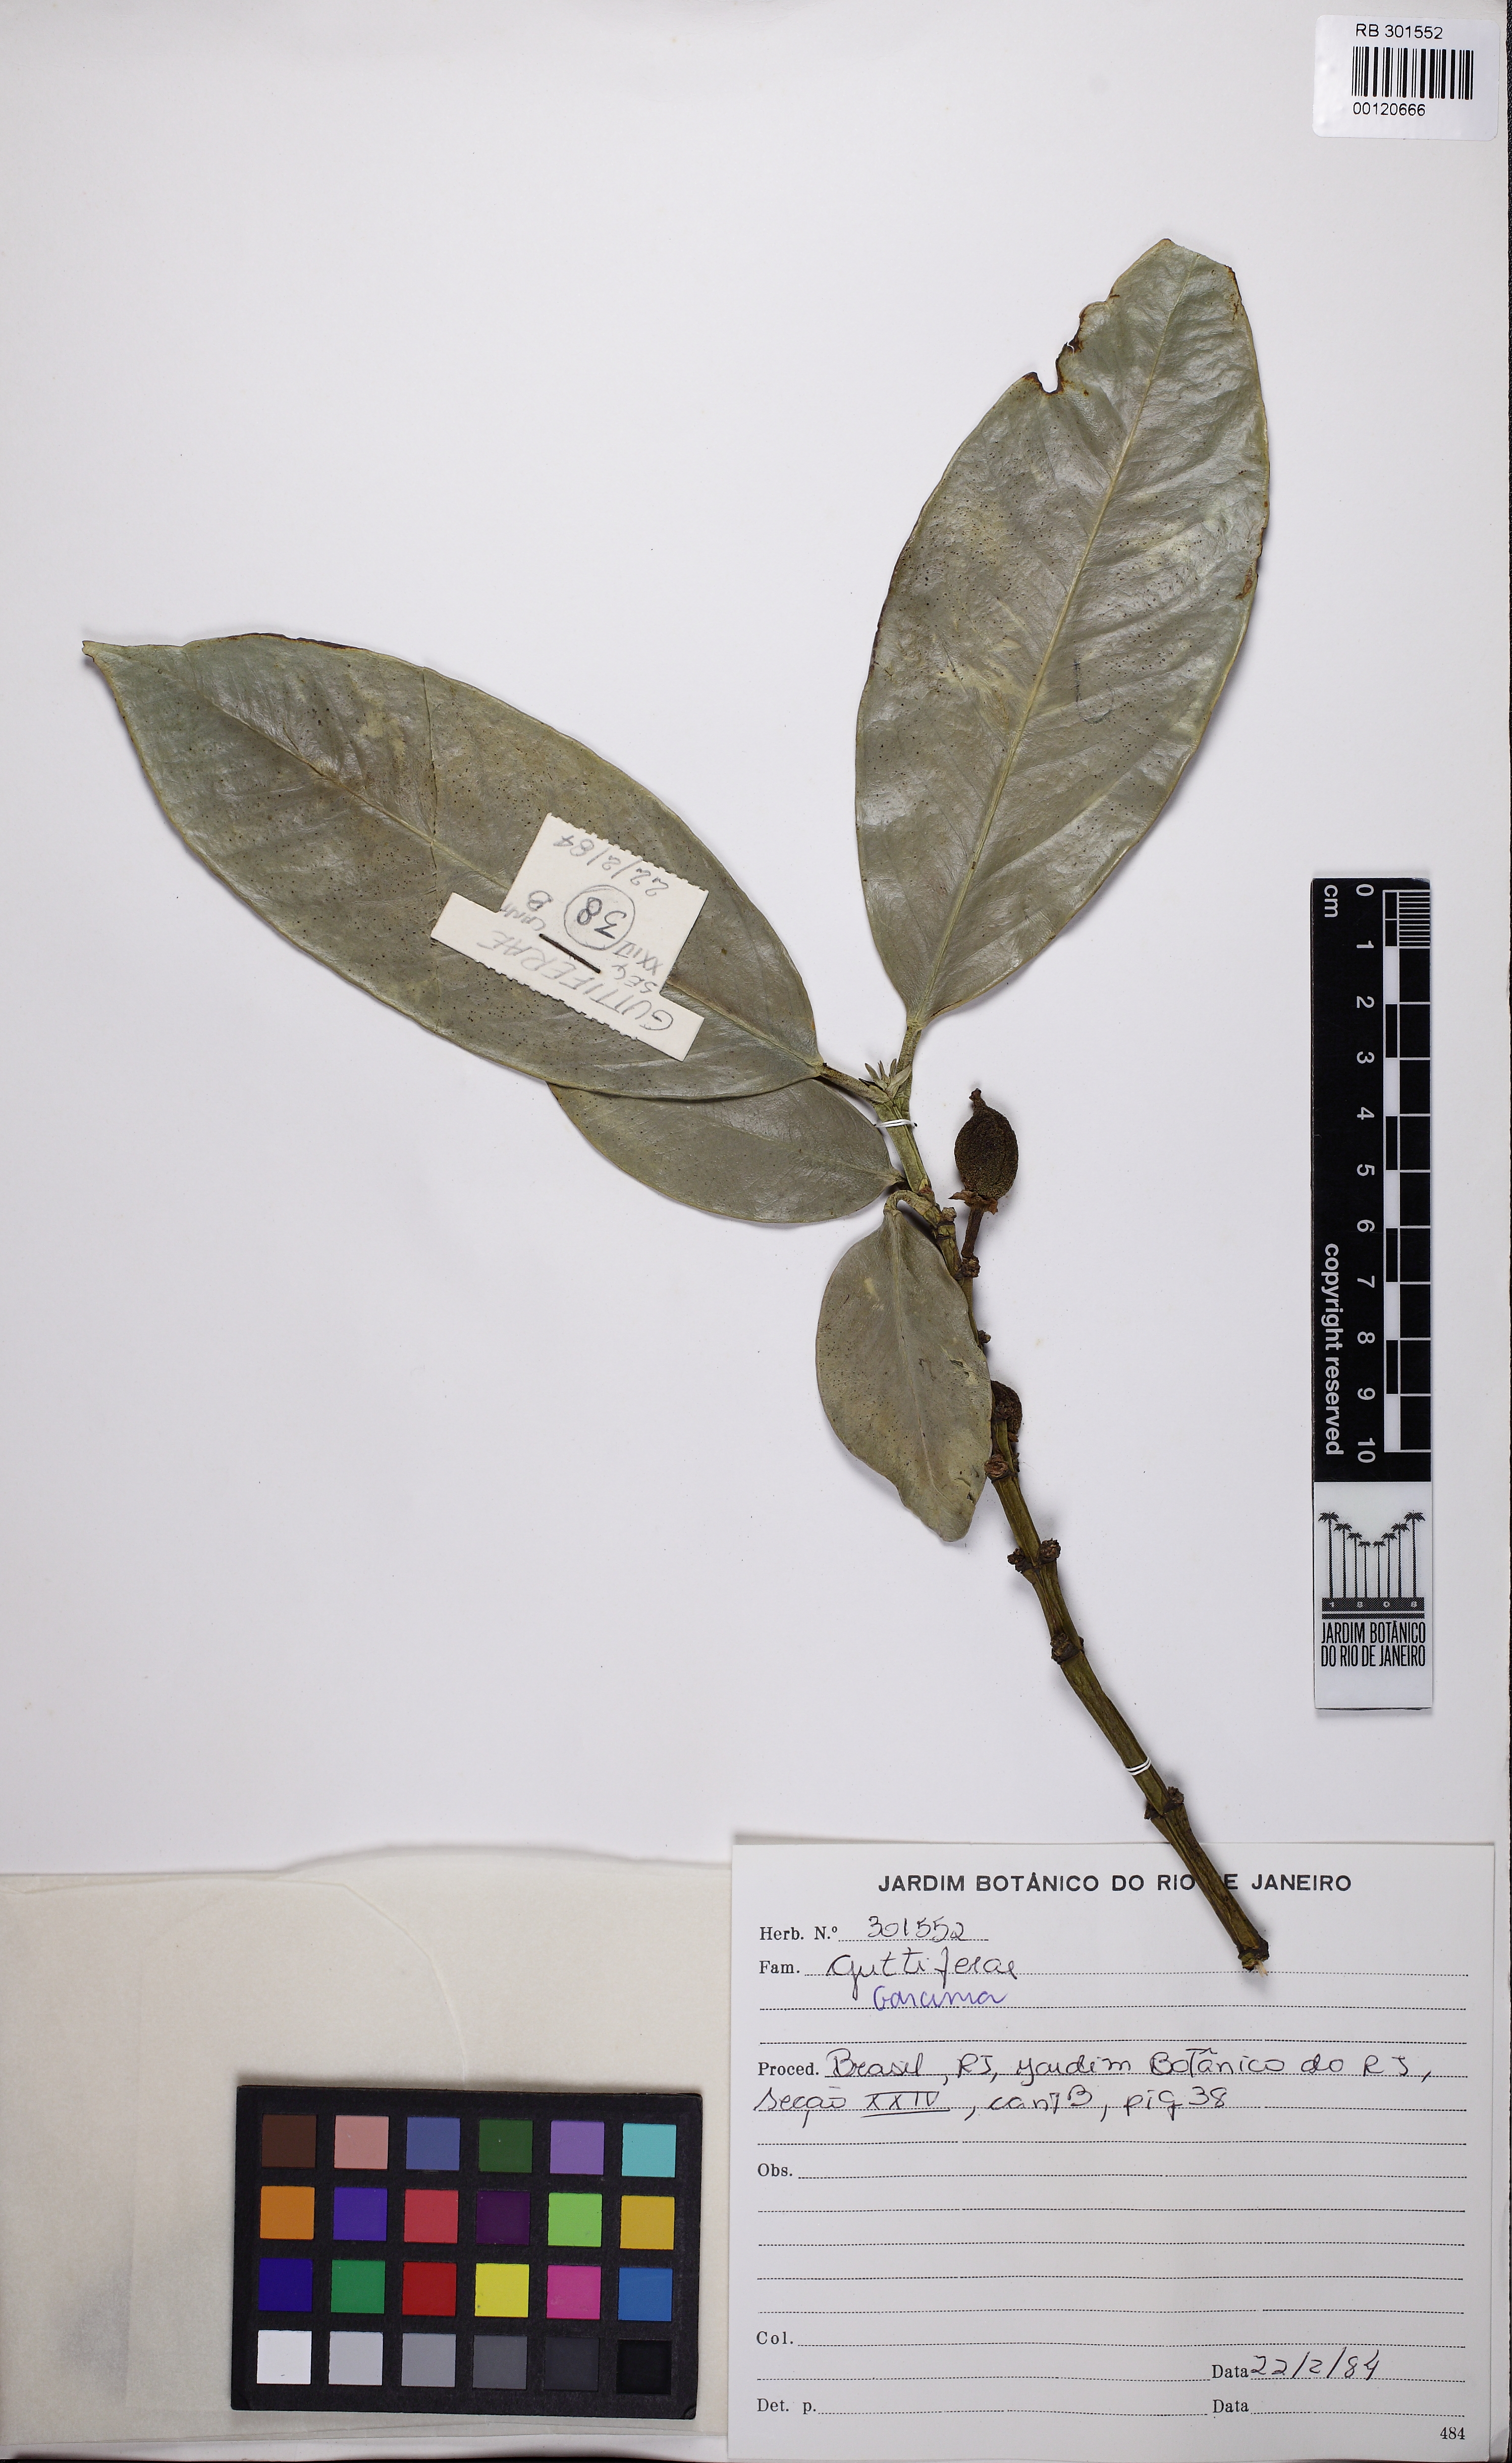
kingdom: Plantae
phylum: Tracheophyta
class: Magnoliopsida
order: Malpighiales
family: Clusiaceae
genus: Symphonia
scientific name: Symphonia globulifera
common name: Boarwood
